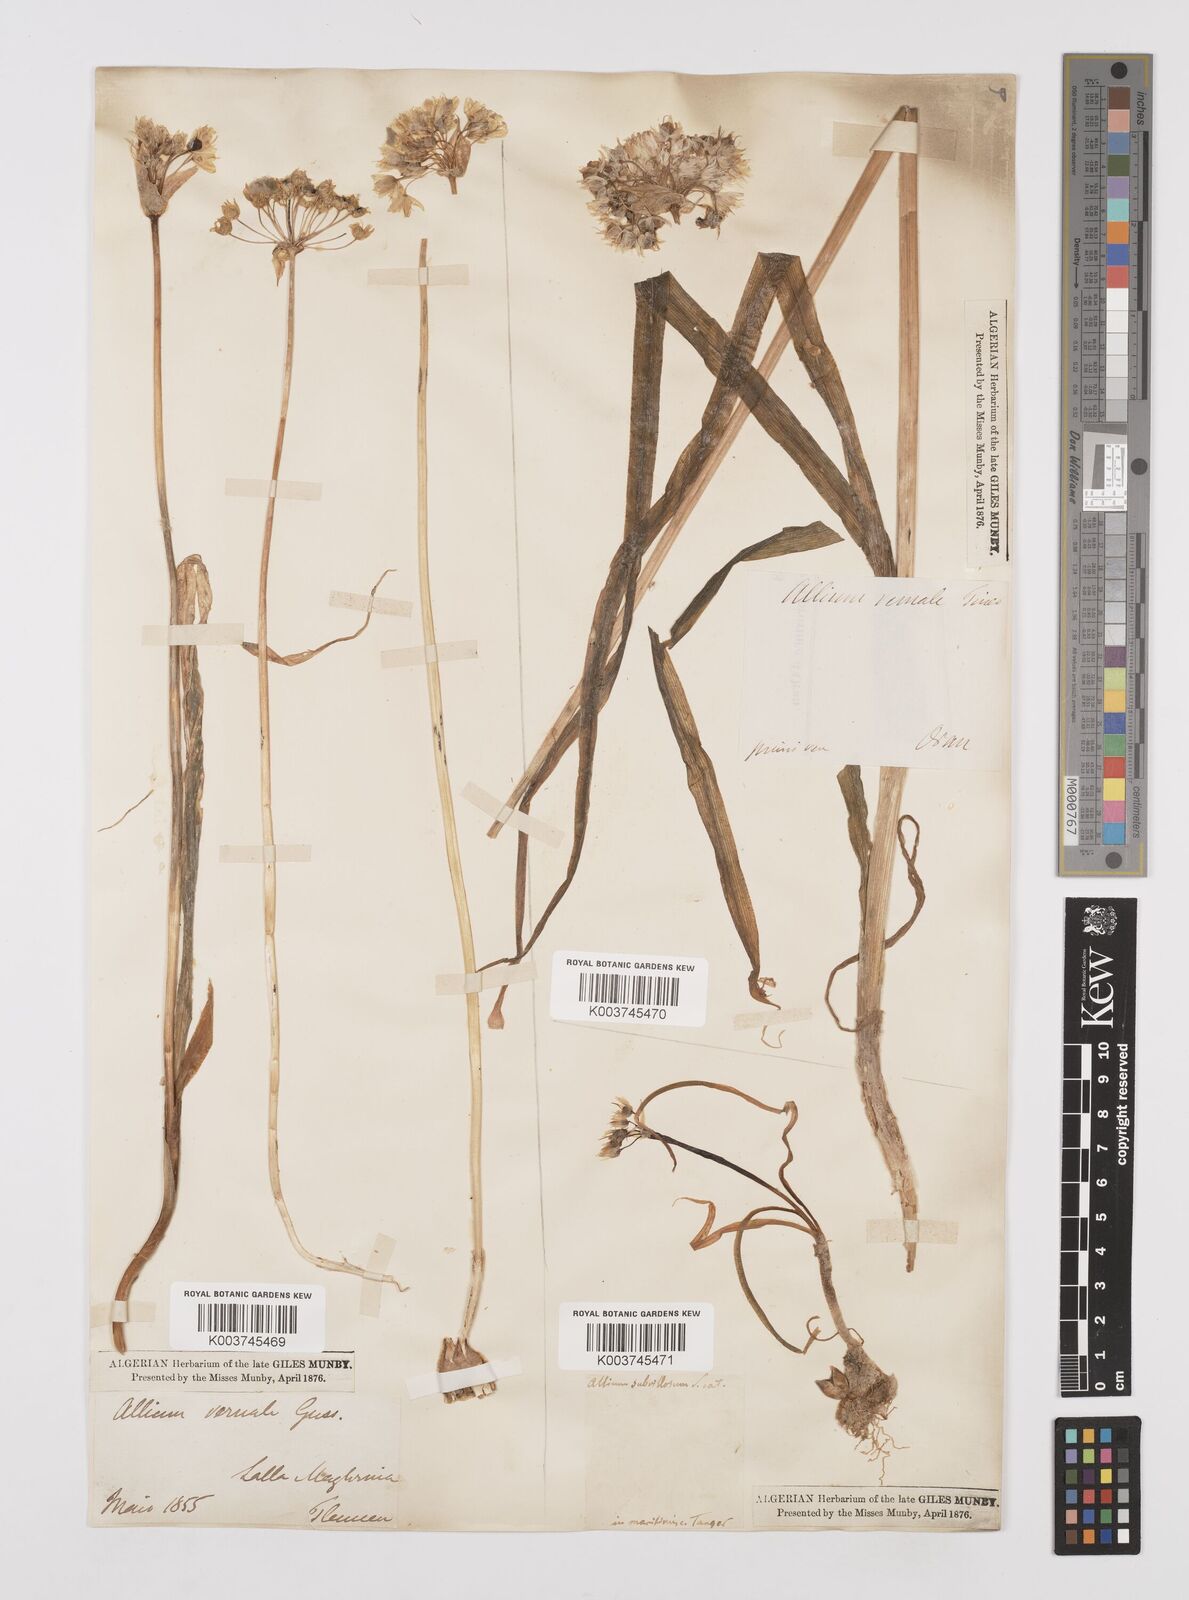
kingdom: Plantae
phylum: Tracheophyta
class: Liliopsida
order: Asparagales
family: Amaryllidaceae
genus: Allium
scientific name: Allium subhirsutum
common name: Hairy garlic
